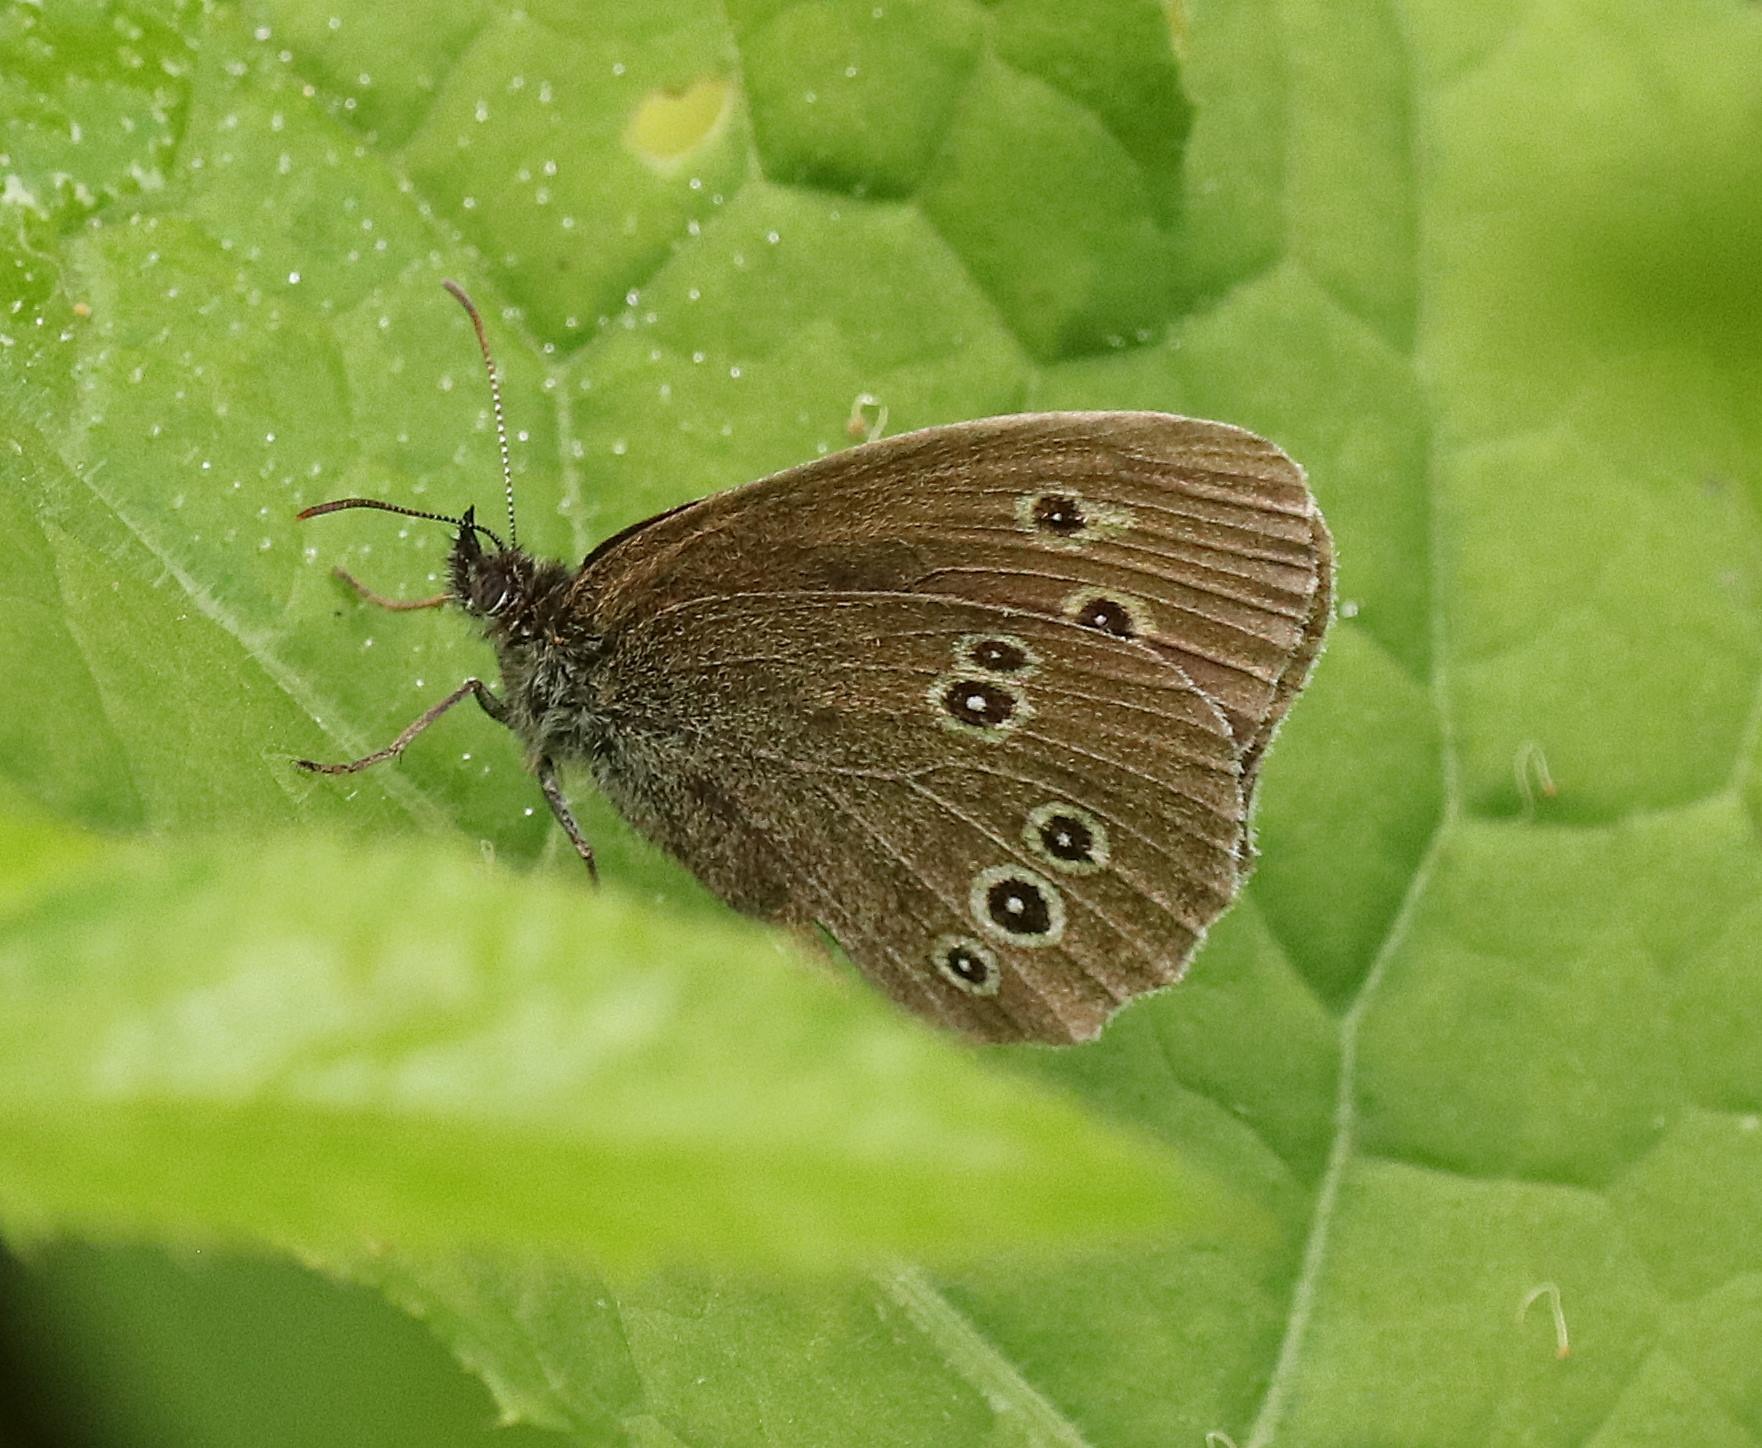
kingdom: Animalia
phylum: Arthropoda
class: Insecta
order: Lepidoptera
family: Nymphalidae
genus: Aphantopus
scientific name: Aphantopus hyperantus
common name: Engrandøje
